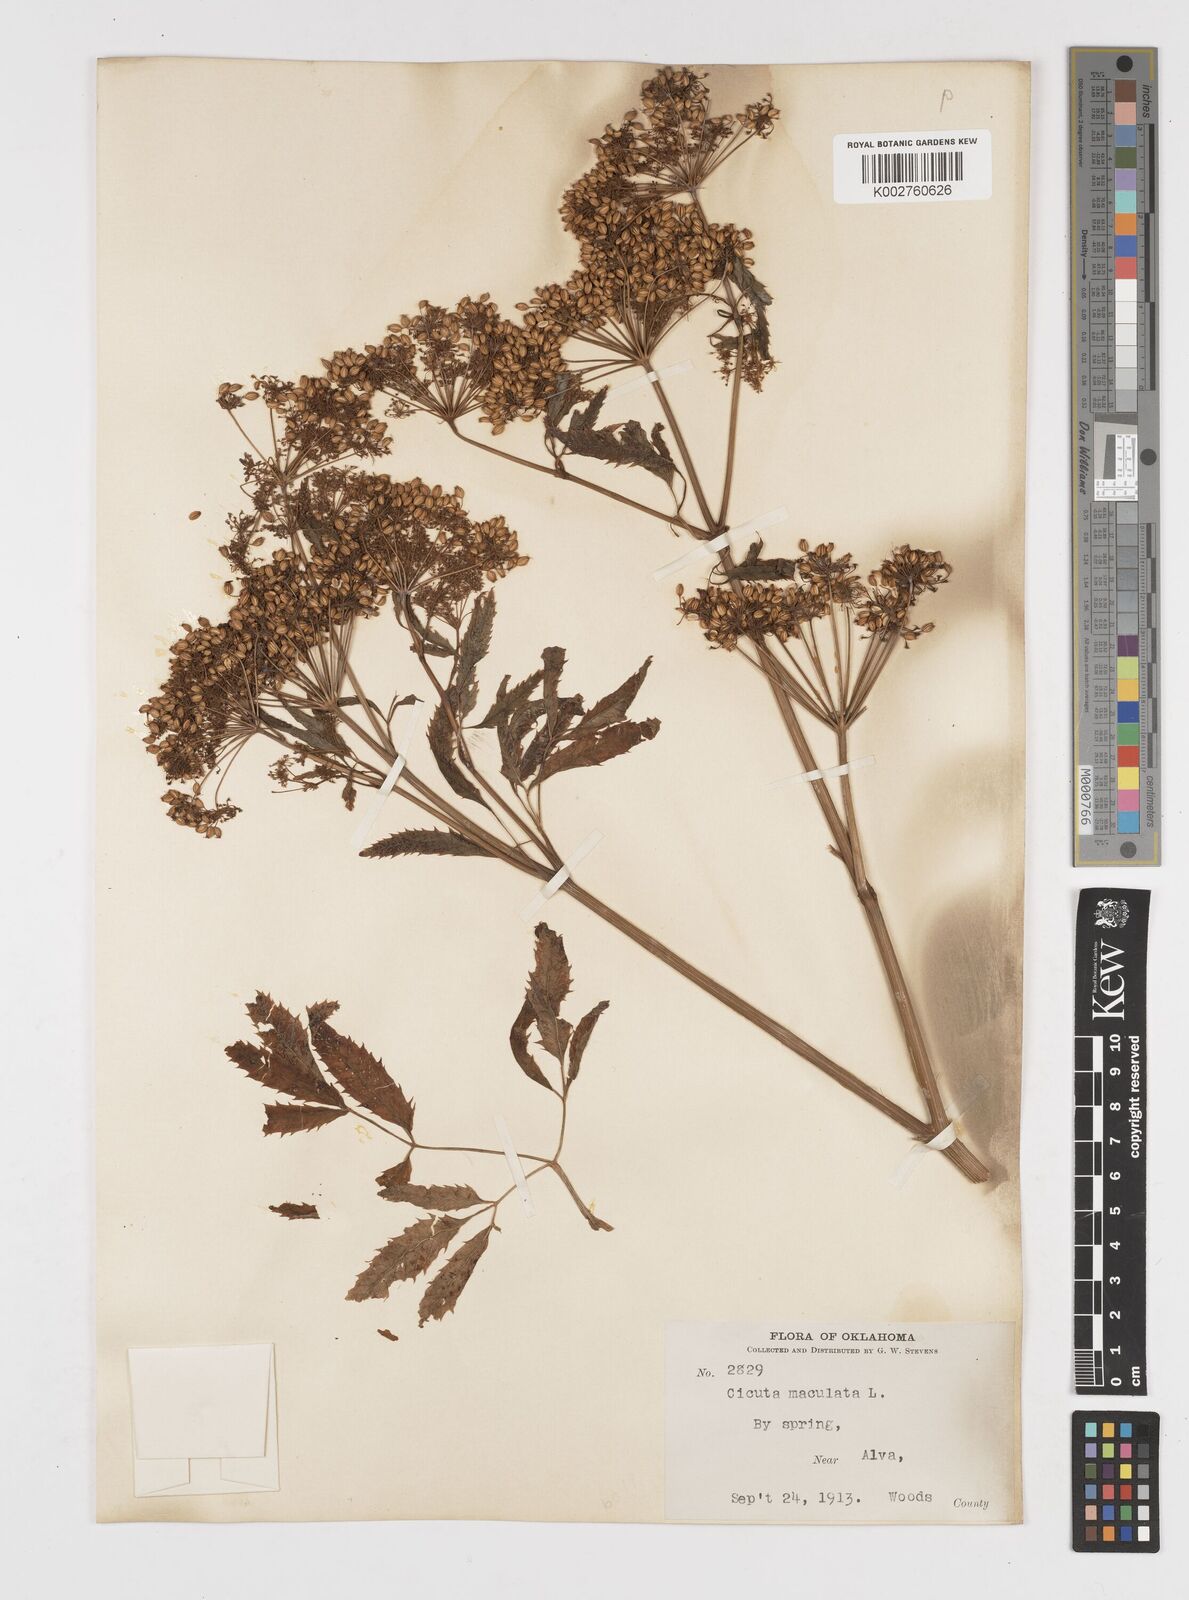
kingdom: Plantae
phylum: Tracheophyta
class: Magnoliopsida
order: Apiales
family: Apiaceae
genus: Cicuta
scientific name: Cicuta maculata
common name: Spotted cowbane
